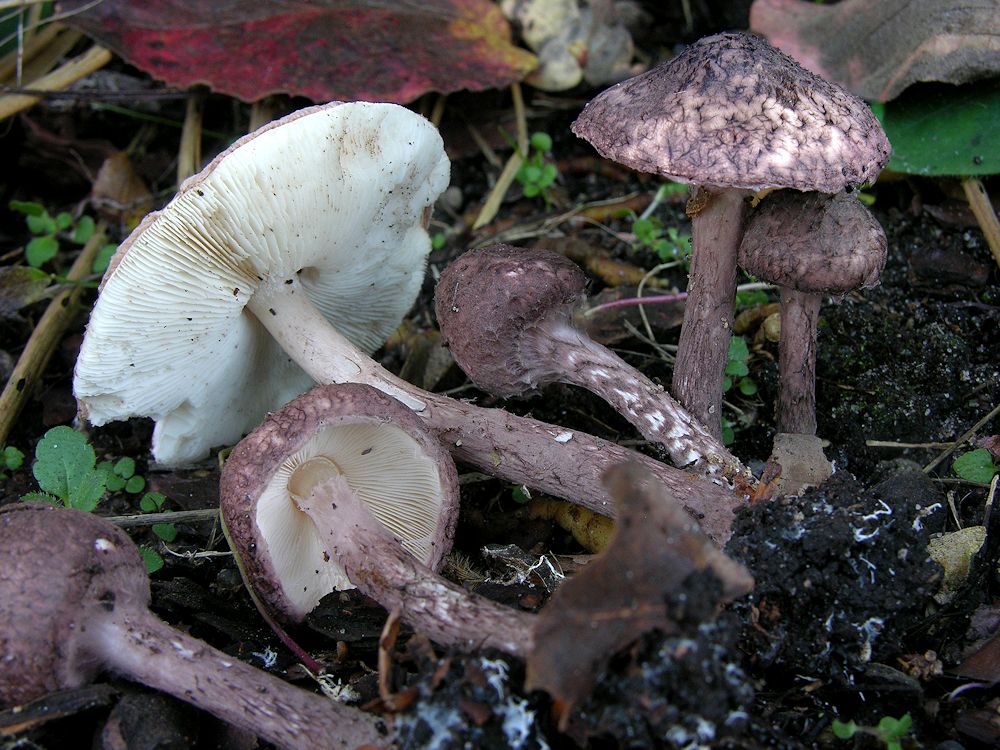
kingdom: Fungi
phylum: Basidiomycota
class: Agaricomycetes
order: Agaricales
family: Agaricaceae
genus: Lepiota
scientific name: Lepiota fuscovinacea
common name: vinrød parasolhat
